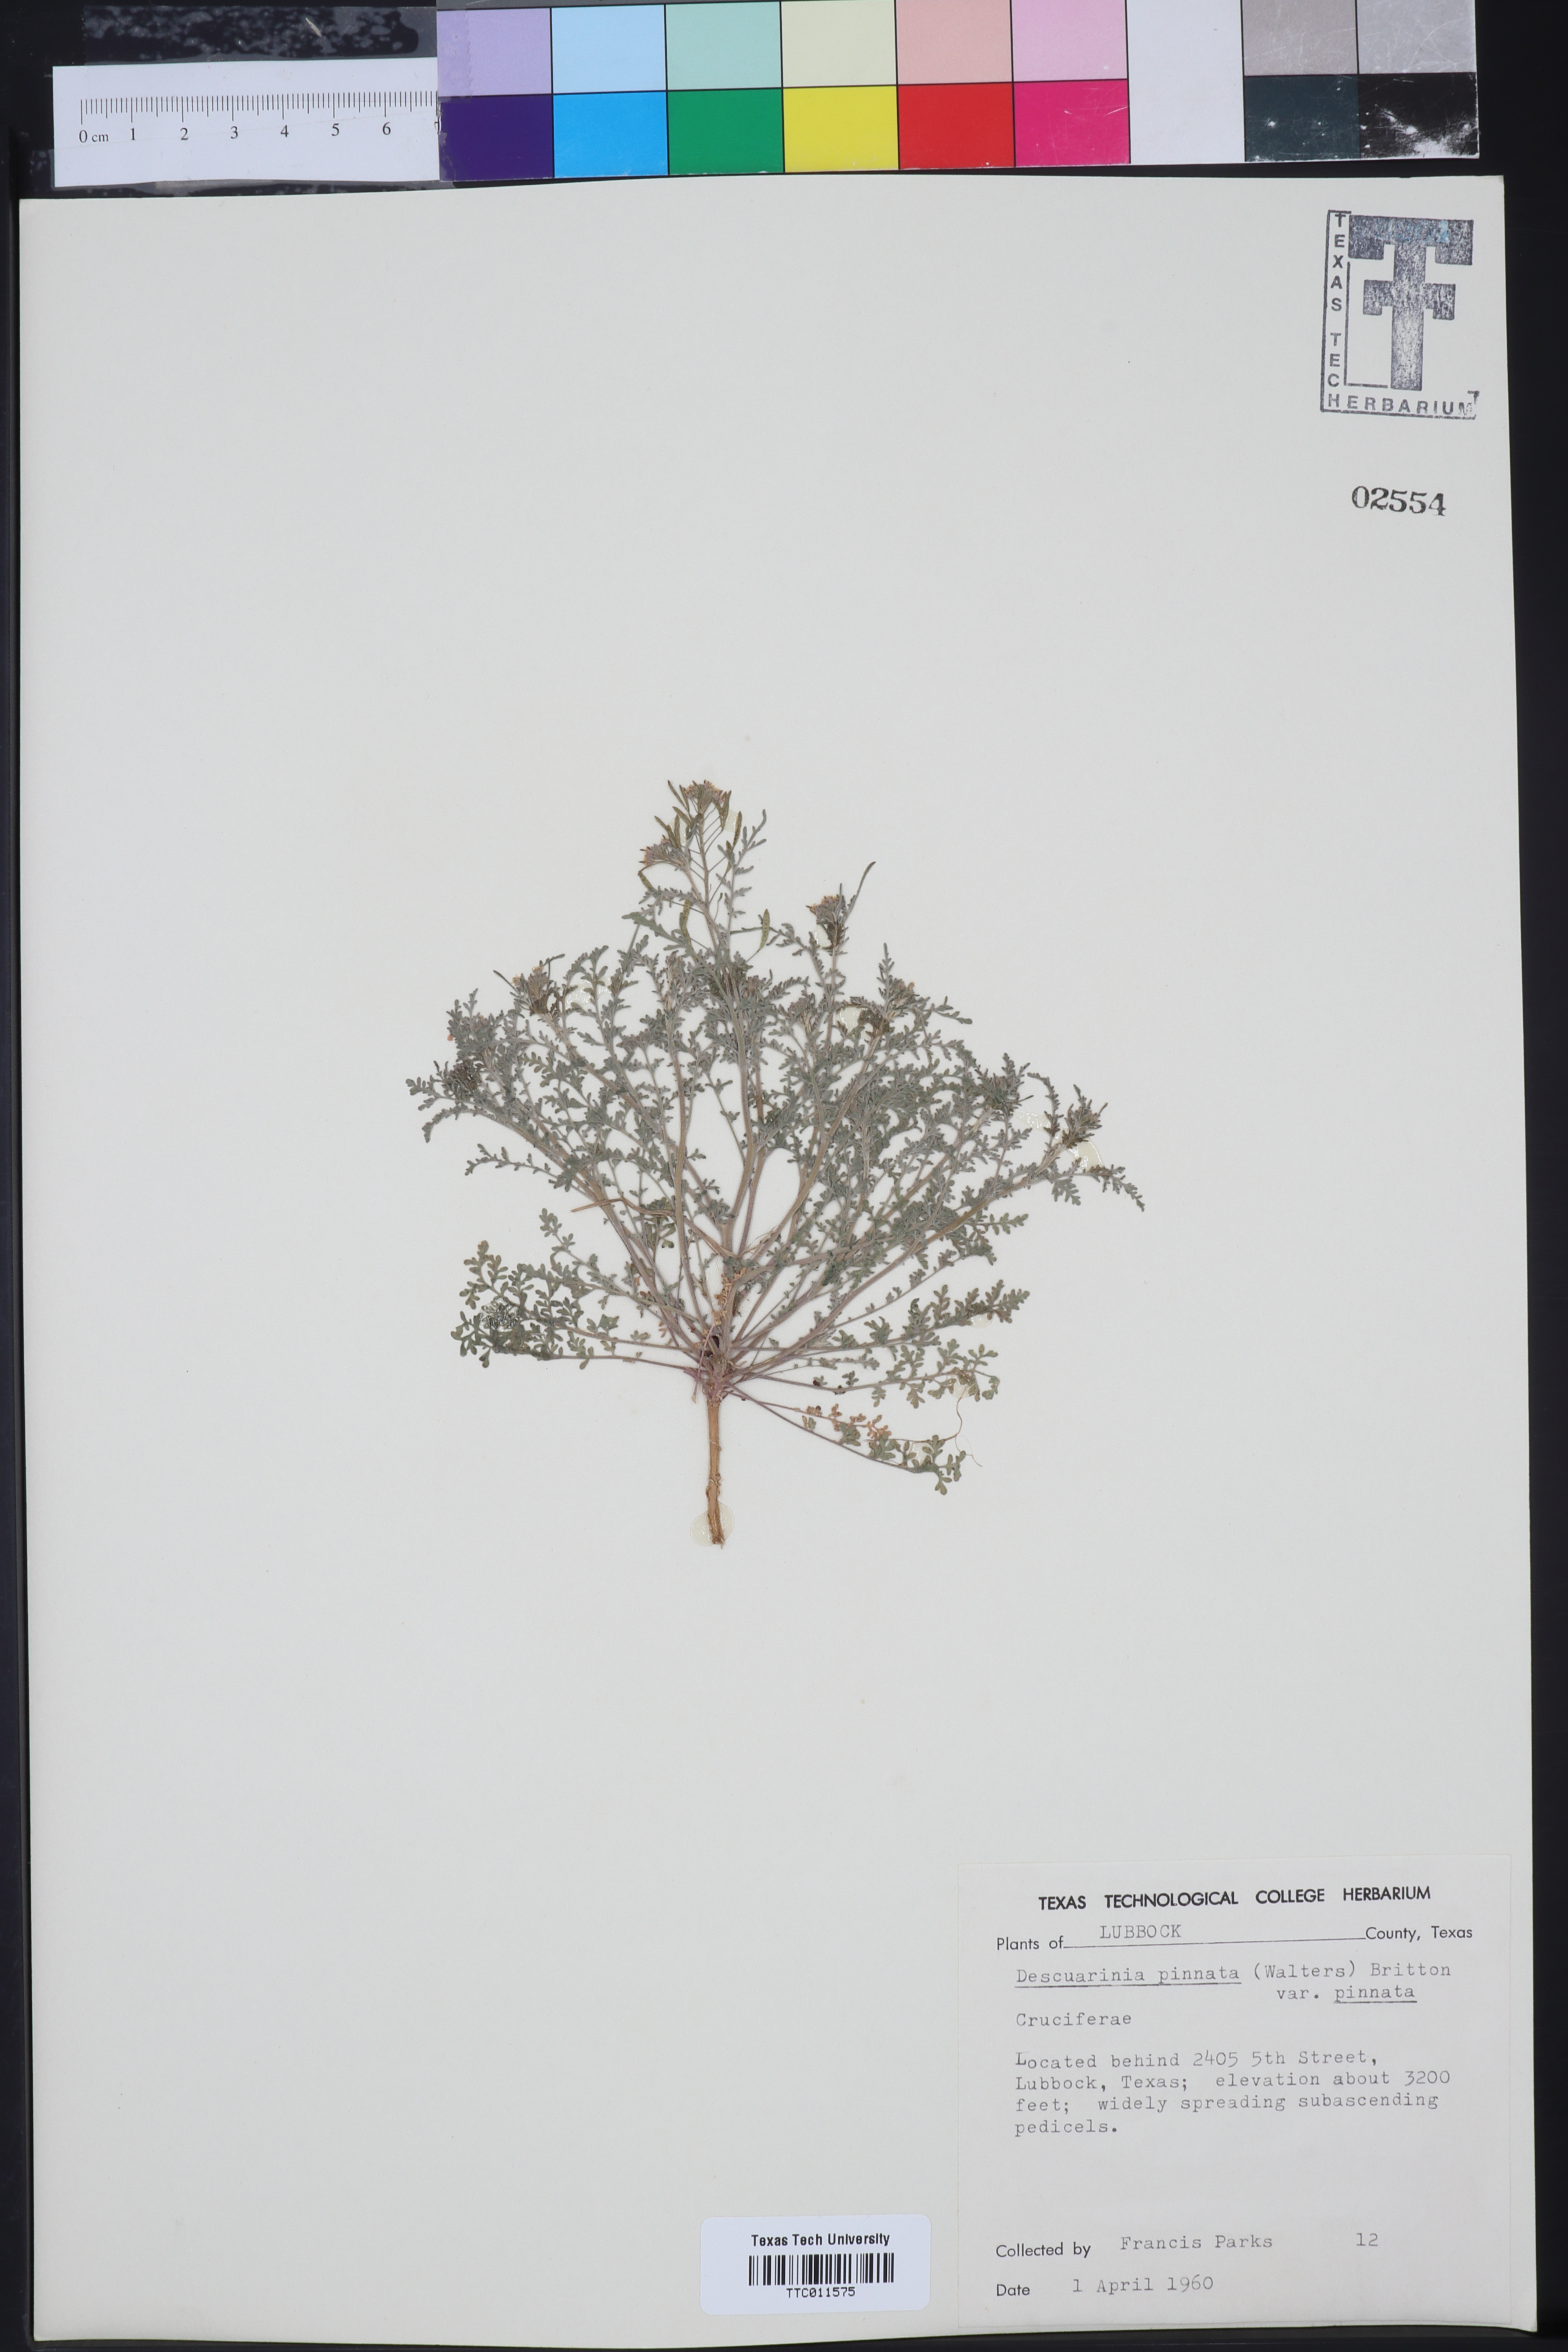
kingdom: Plantae
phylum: Tracheophyta
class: Magnoliopsida
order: Brassicales
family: Brassicaceae
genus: Descurainia
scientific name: Descurainia pinnata
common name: Western tansy mustard
